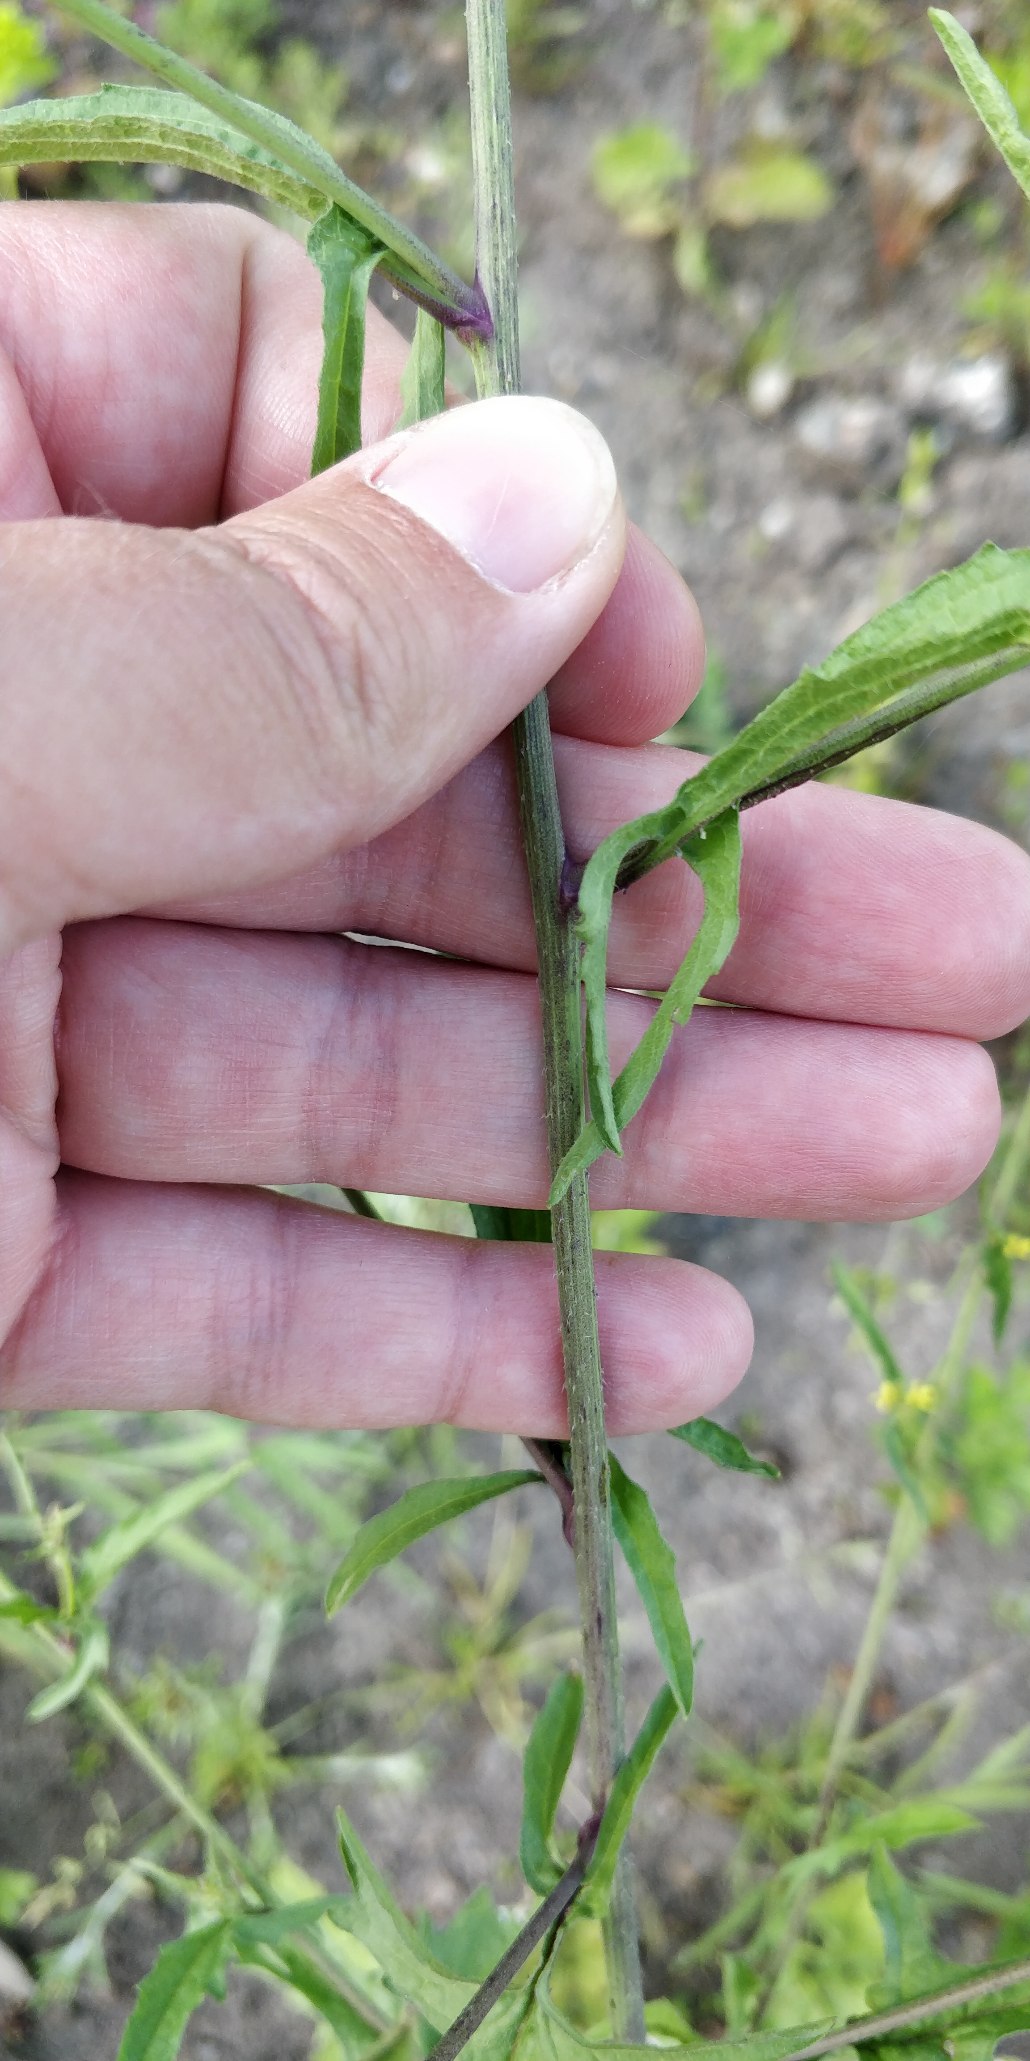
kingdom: Plantae
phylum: Tracheophyta
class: Magnoliopsida
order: Brassicales
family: Brassicaceae
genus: Sisymbrium
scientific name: Sisymbrium officinale
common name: Rank vejsennep
